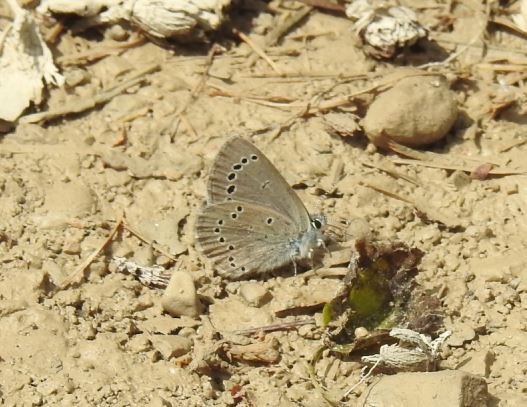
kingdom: Animalia
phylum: Arthropoda
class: Insecta
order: Lepidoptera
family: Lycaenidae
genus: Glaucopsyche
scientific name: Glaucopsyche lygdamus
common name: Silvery Blue
